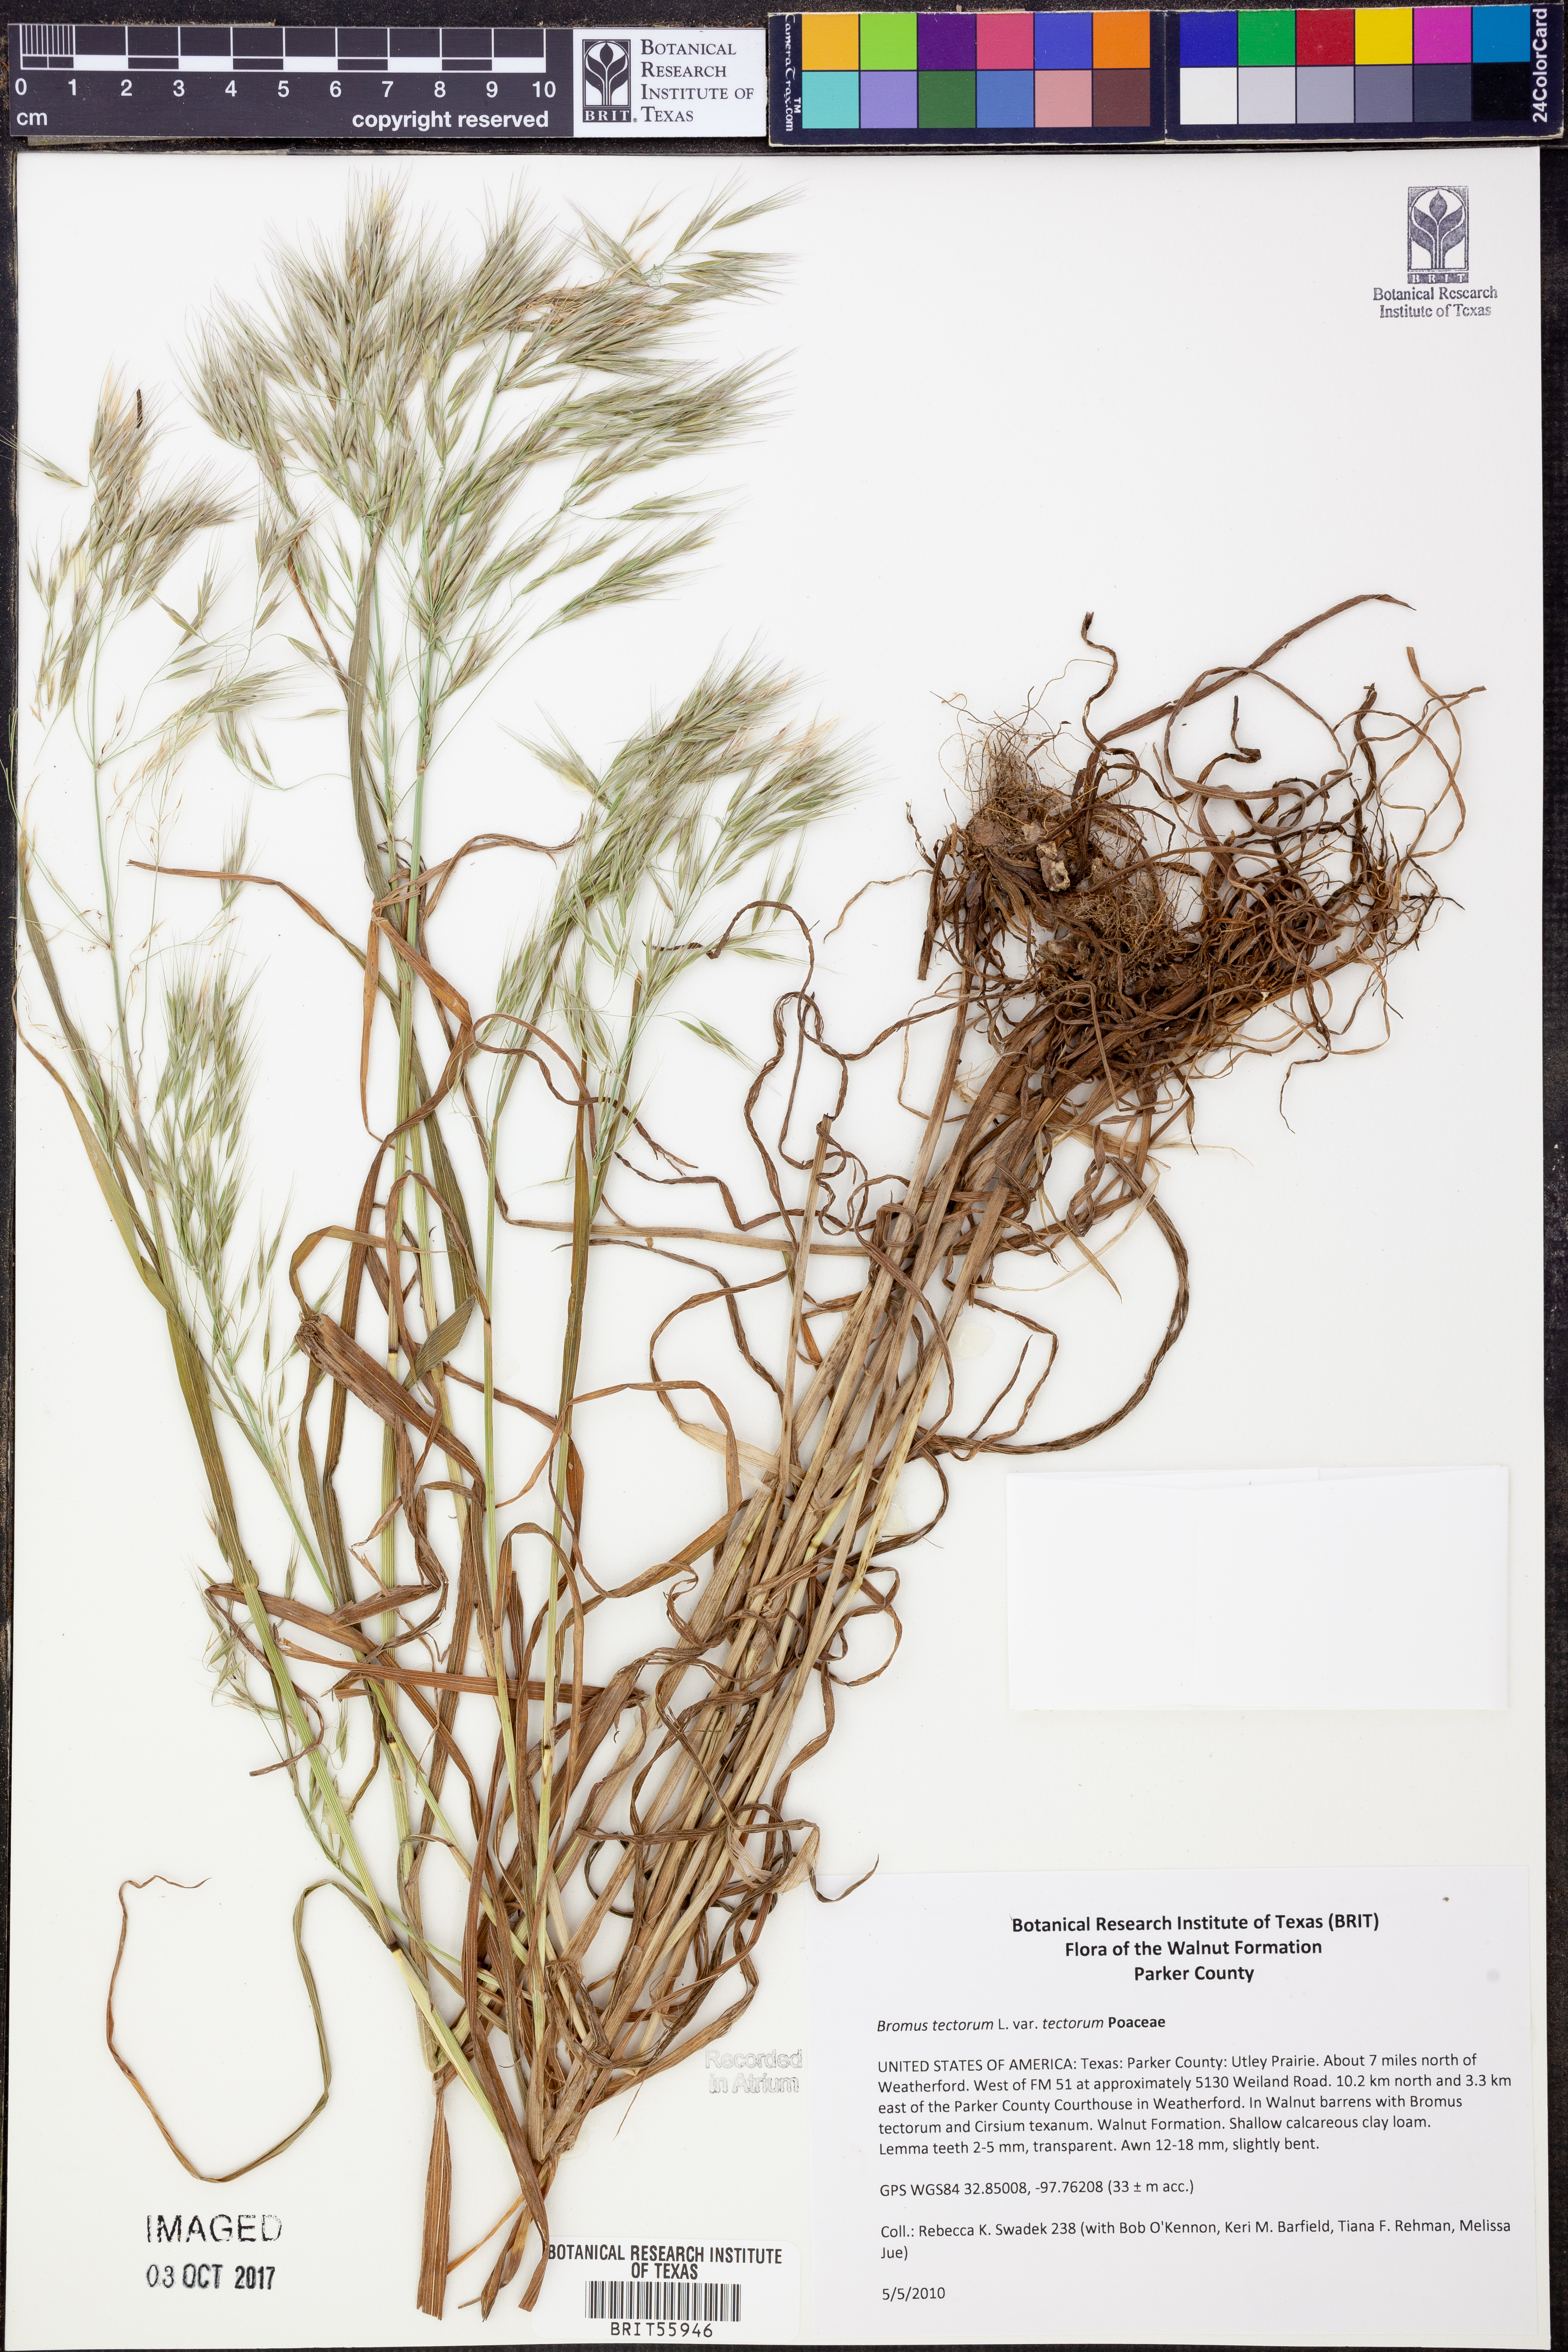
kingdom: Plantae
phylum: Tracheophyta
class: Liliopsida
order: Poales
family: Poaceae
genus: Bromus
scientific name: Bromus tectorum
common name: Cheatgrass
